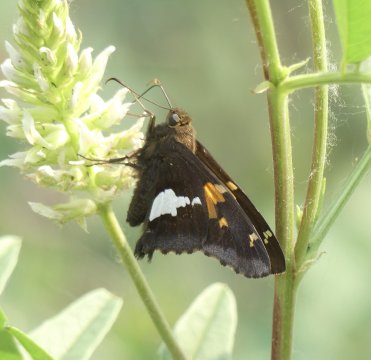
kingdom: Animalia
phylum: Arthropoda
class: Insecta
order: Lepidoptera
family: Hesperiidae
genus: Epargyreus
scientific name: Epargyreus clarus
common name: Silver-spotted Skipper
